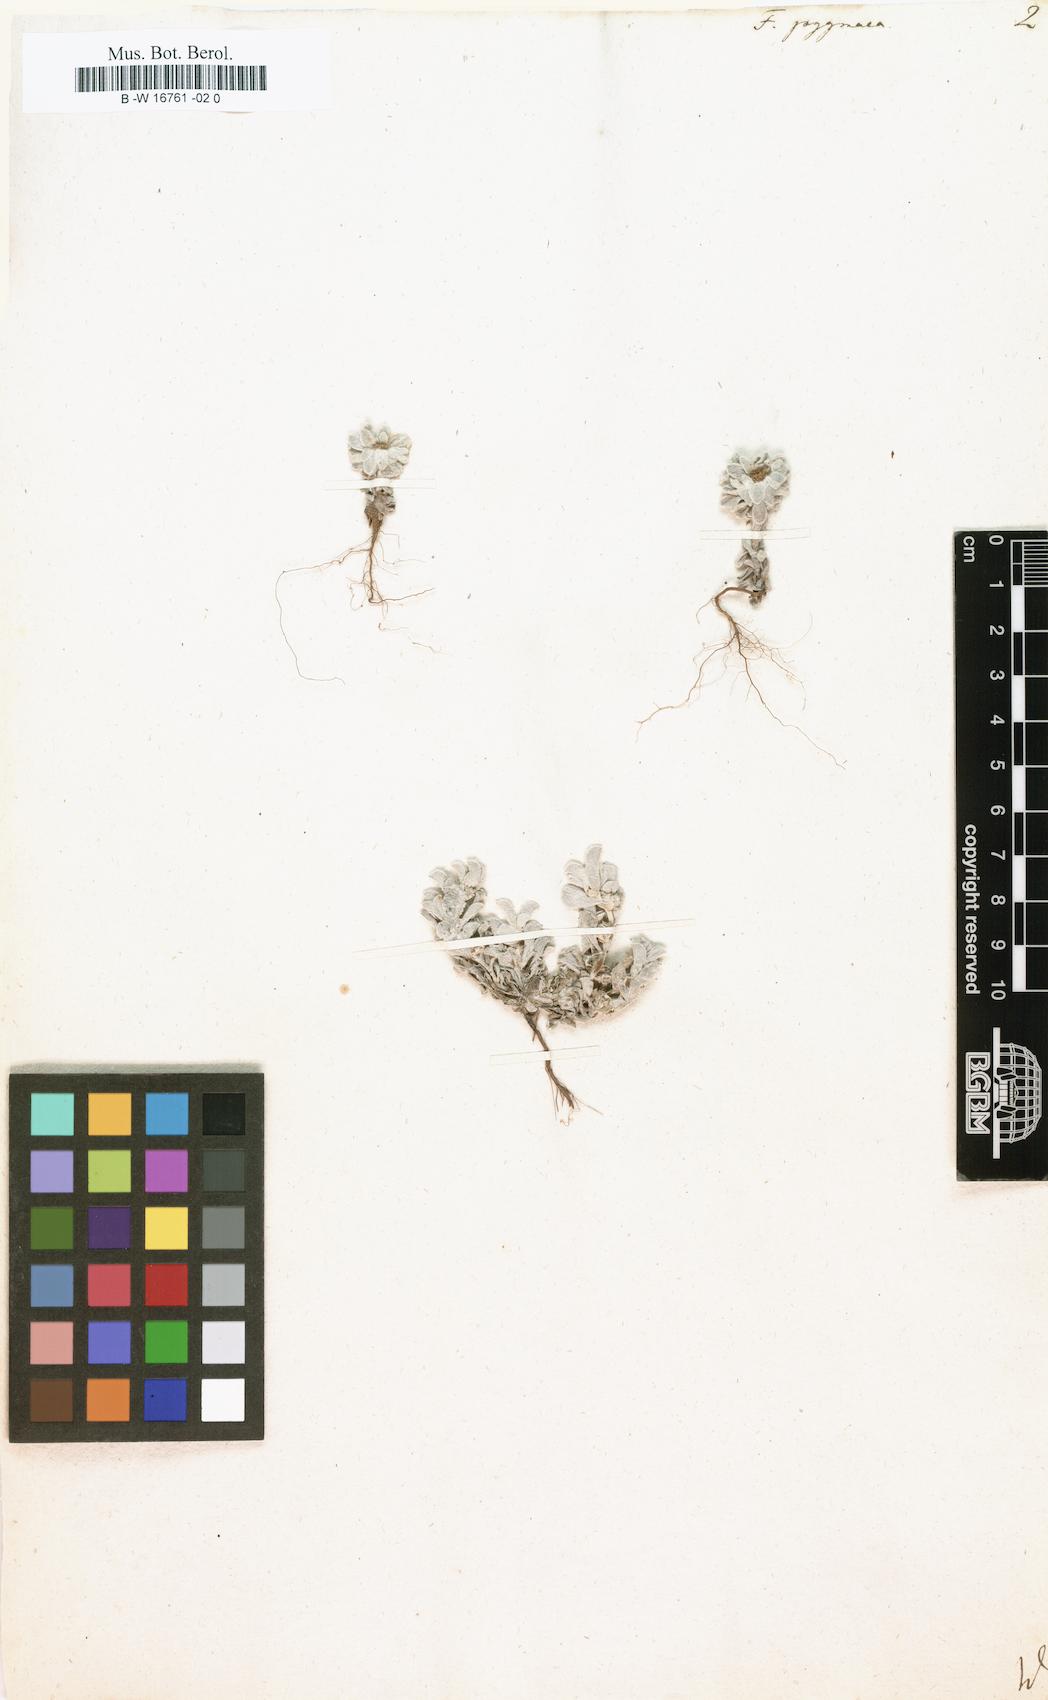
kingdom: Plantae
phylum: Tracheophyta
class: Magnoliopsida
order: Asterales
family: Asteraceae
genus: Filago
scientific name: Filago pygmaea
